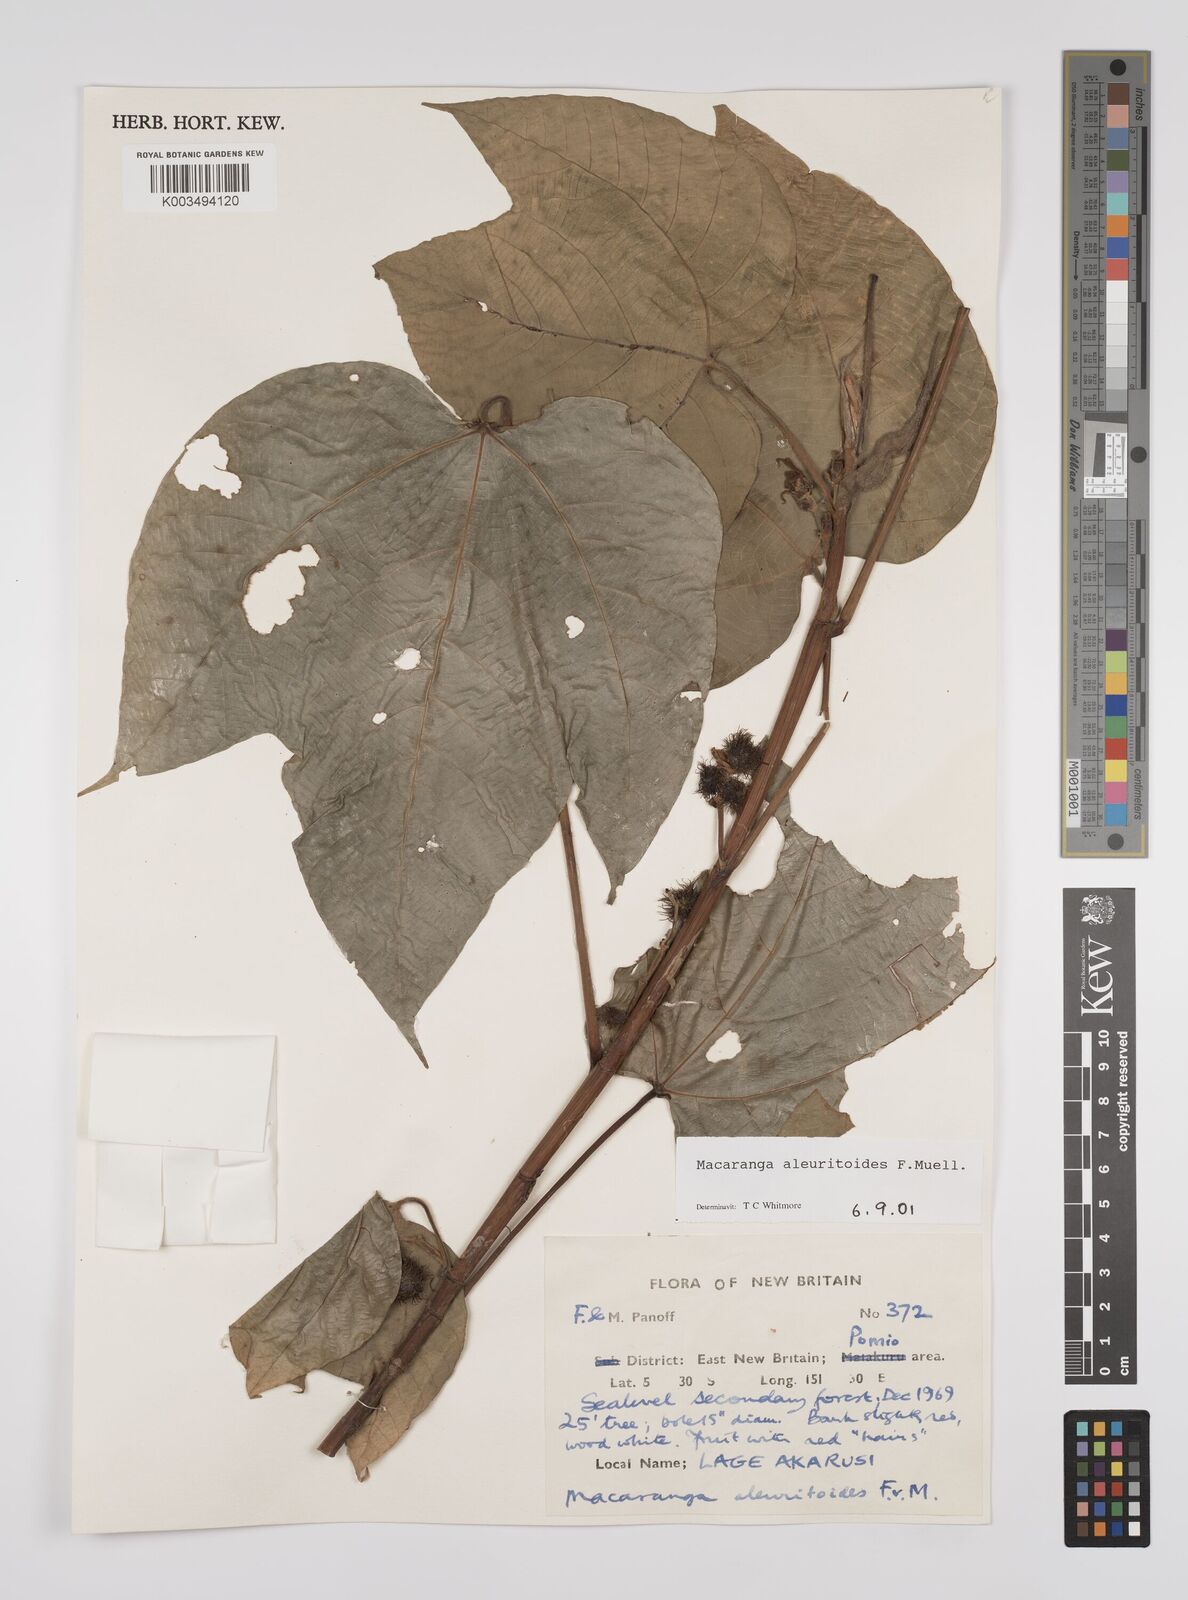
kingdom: Plantae
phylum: Tracheophyta
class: Magnoliopsida
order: Malpighiales
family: Euphorbiaceae
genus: Macaranga
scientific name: Macaranga aleuritoides
